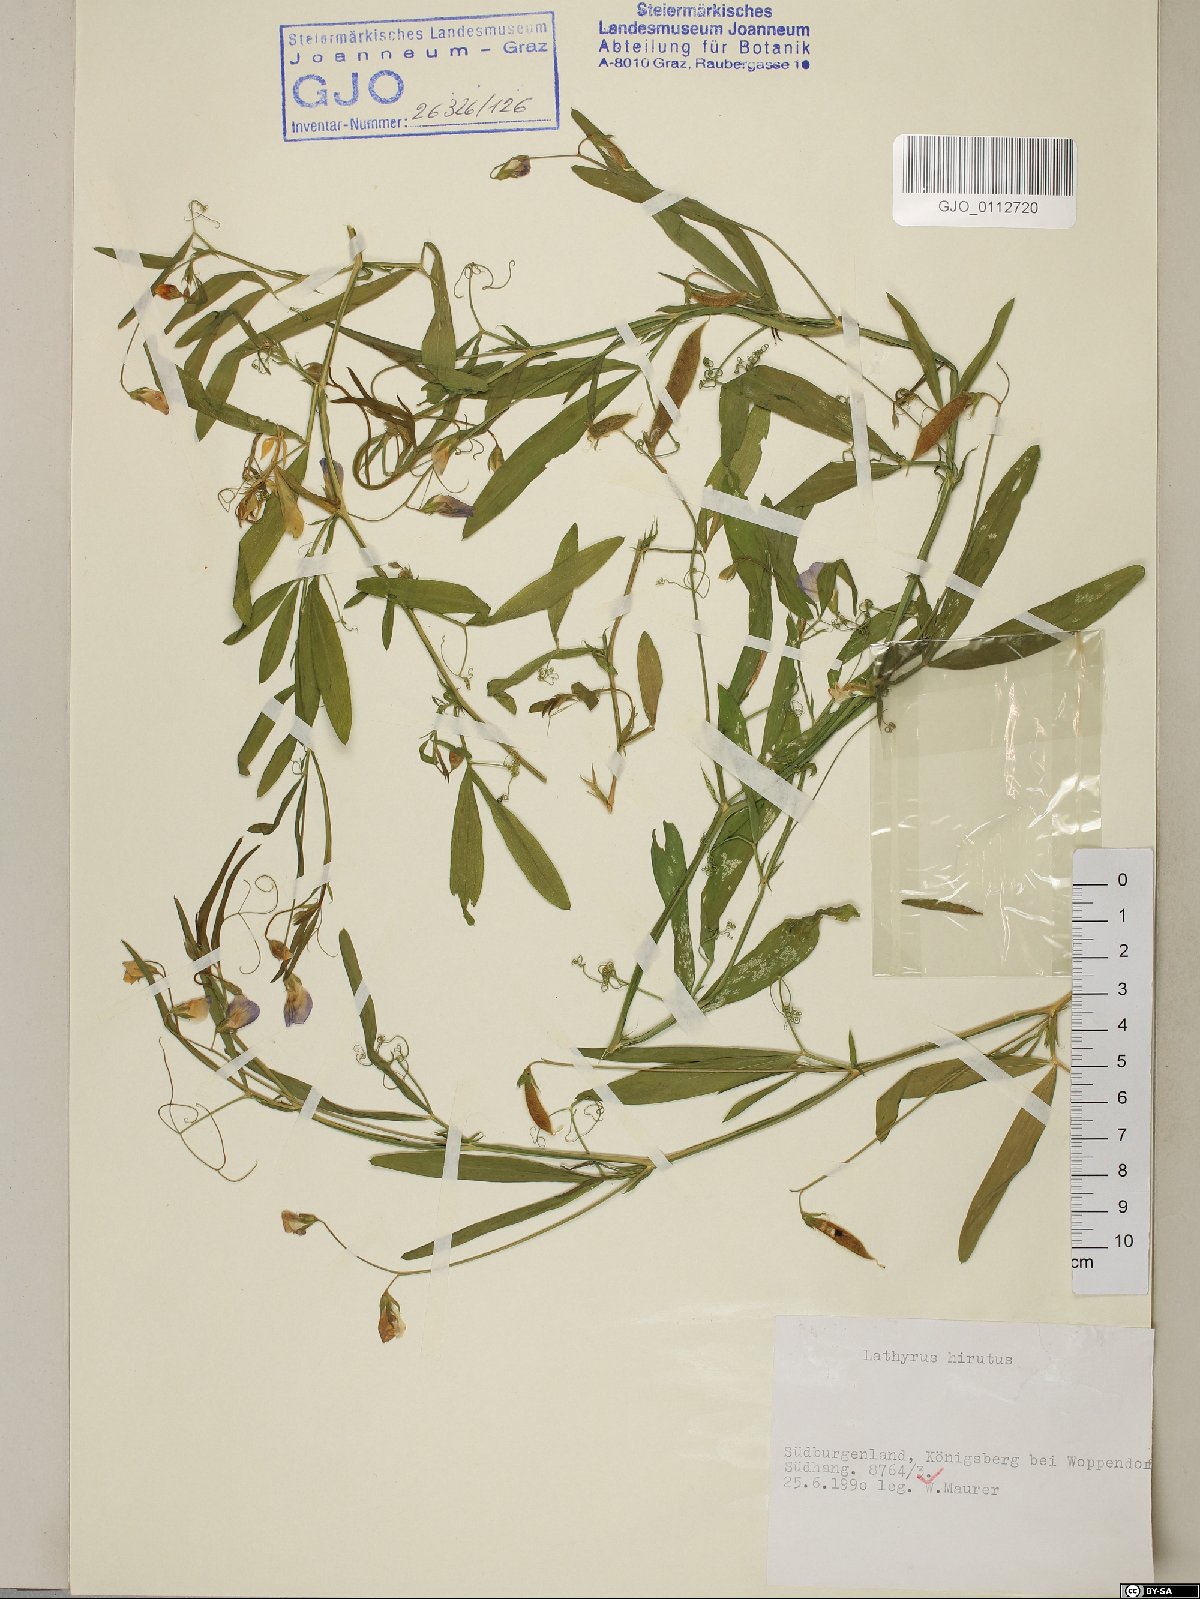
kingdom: Plantae
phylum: Tracheophyta
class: Magnoliopsida
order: Fabales
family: Fabaceae
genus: Lathyrus
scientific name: Lathyrus hirsutus
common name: Hairy vetchling
